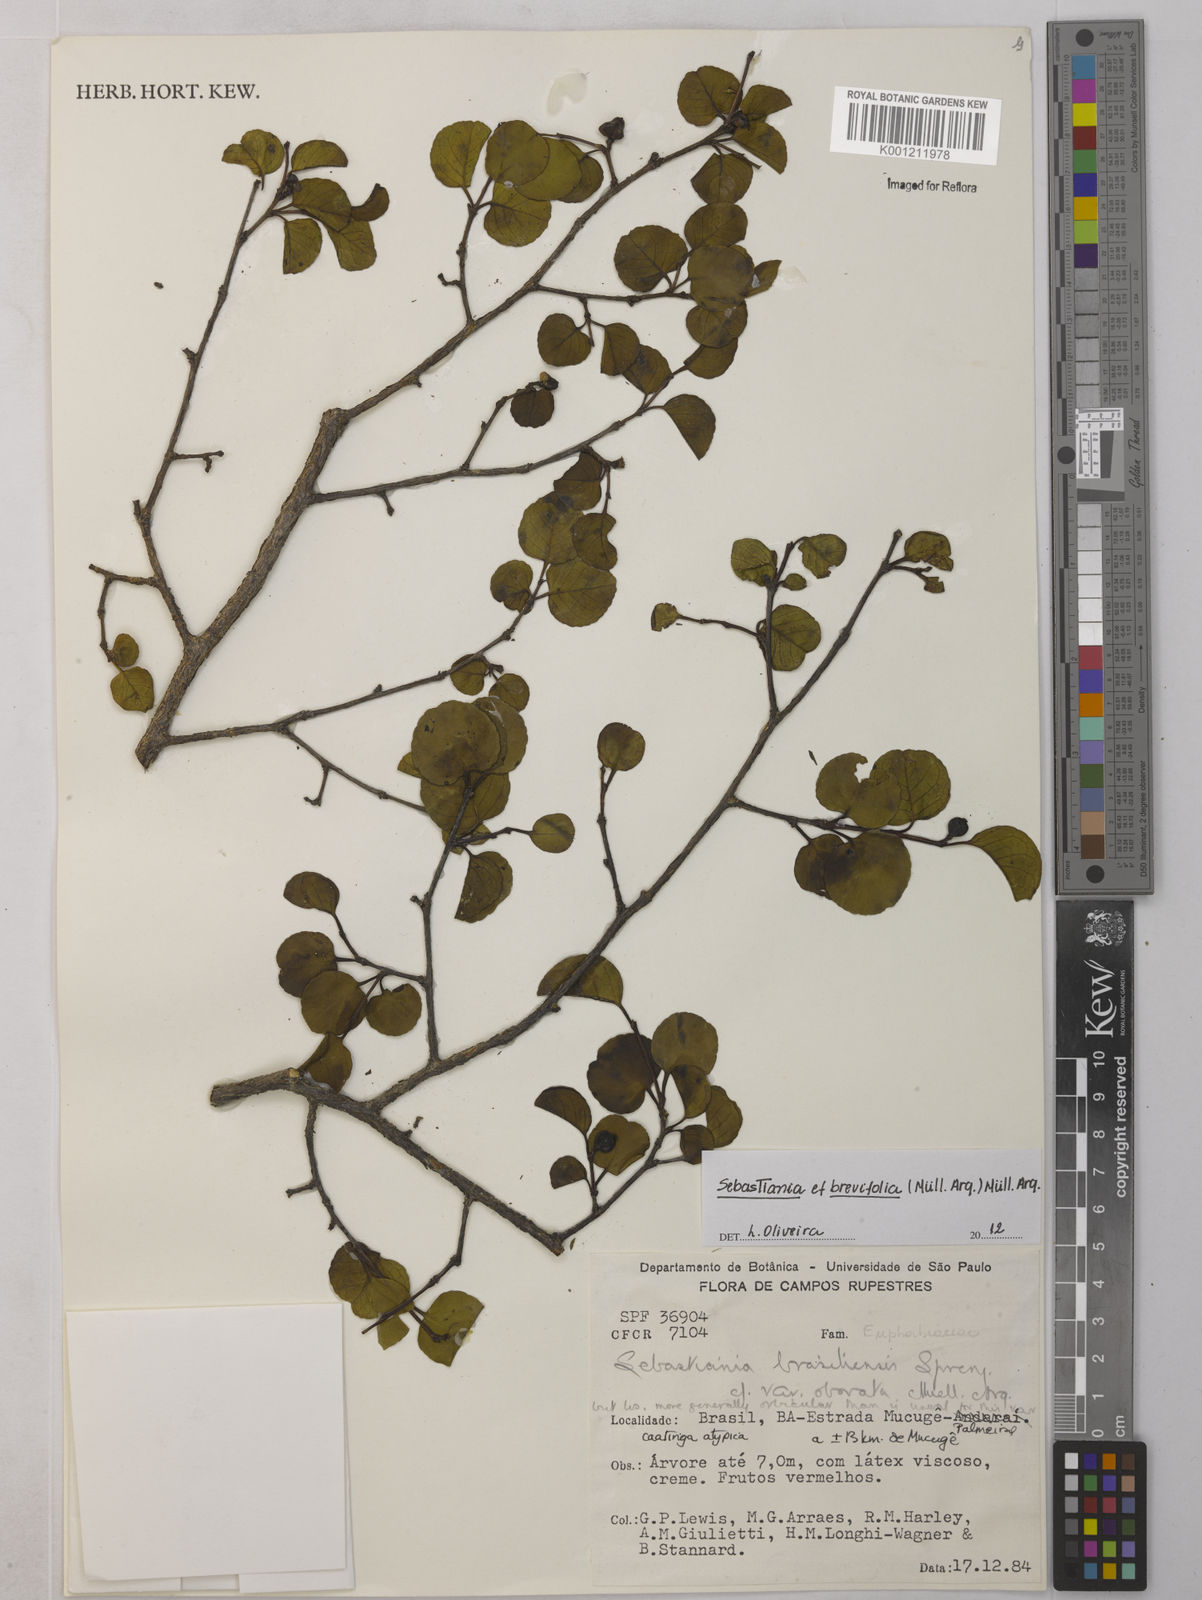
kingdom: Plantae
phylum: Tracheophyta
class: Magnoliopsida
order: Malpighiales
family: Euphorbiaceae
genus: Sebastiania
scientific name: Sebastiania
